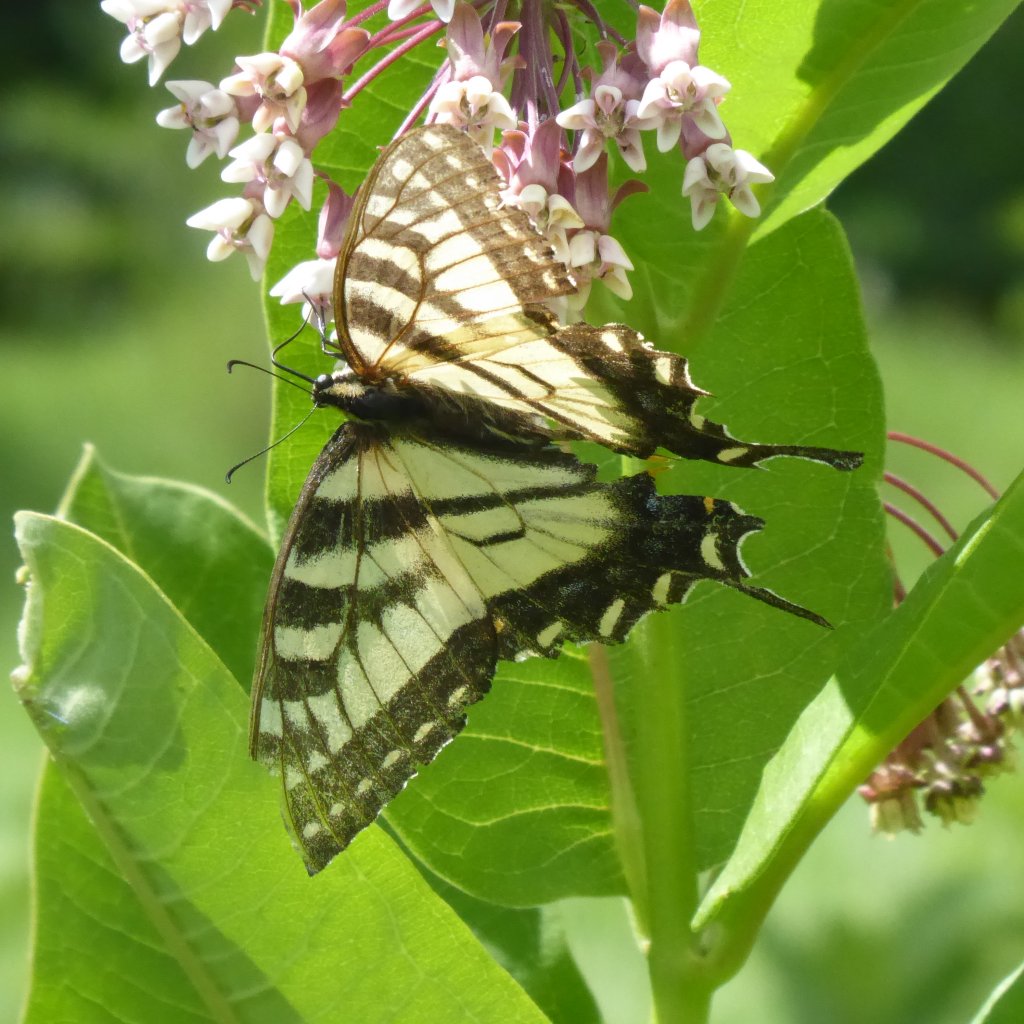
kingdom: Animalia
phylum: Arthropoda
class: Insecta
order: Lepidoptera
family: Papilionidae
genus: Pterourus
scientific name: Pterourus
